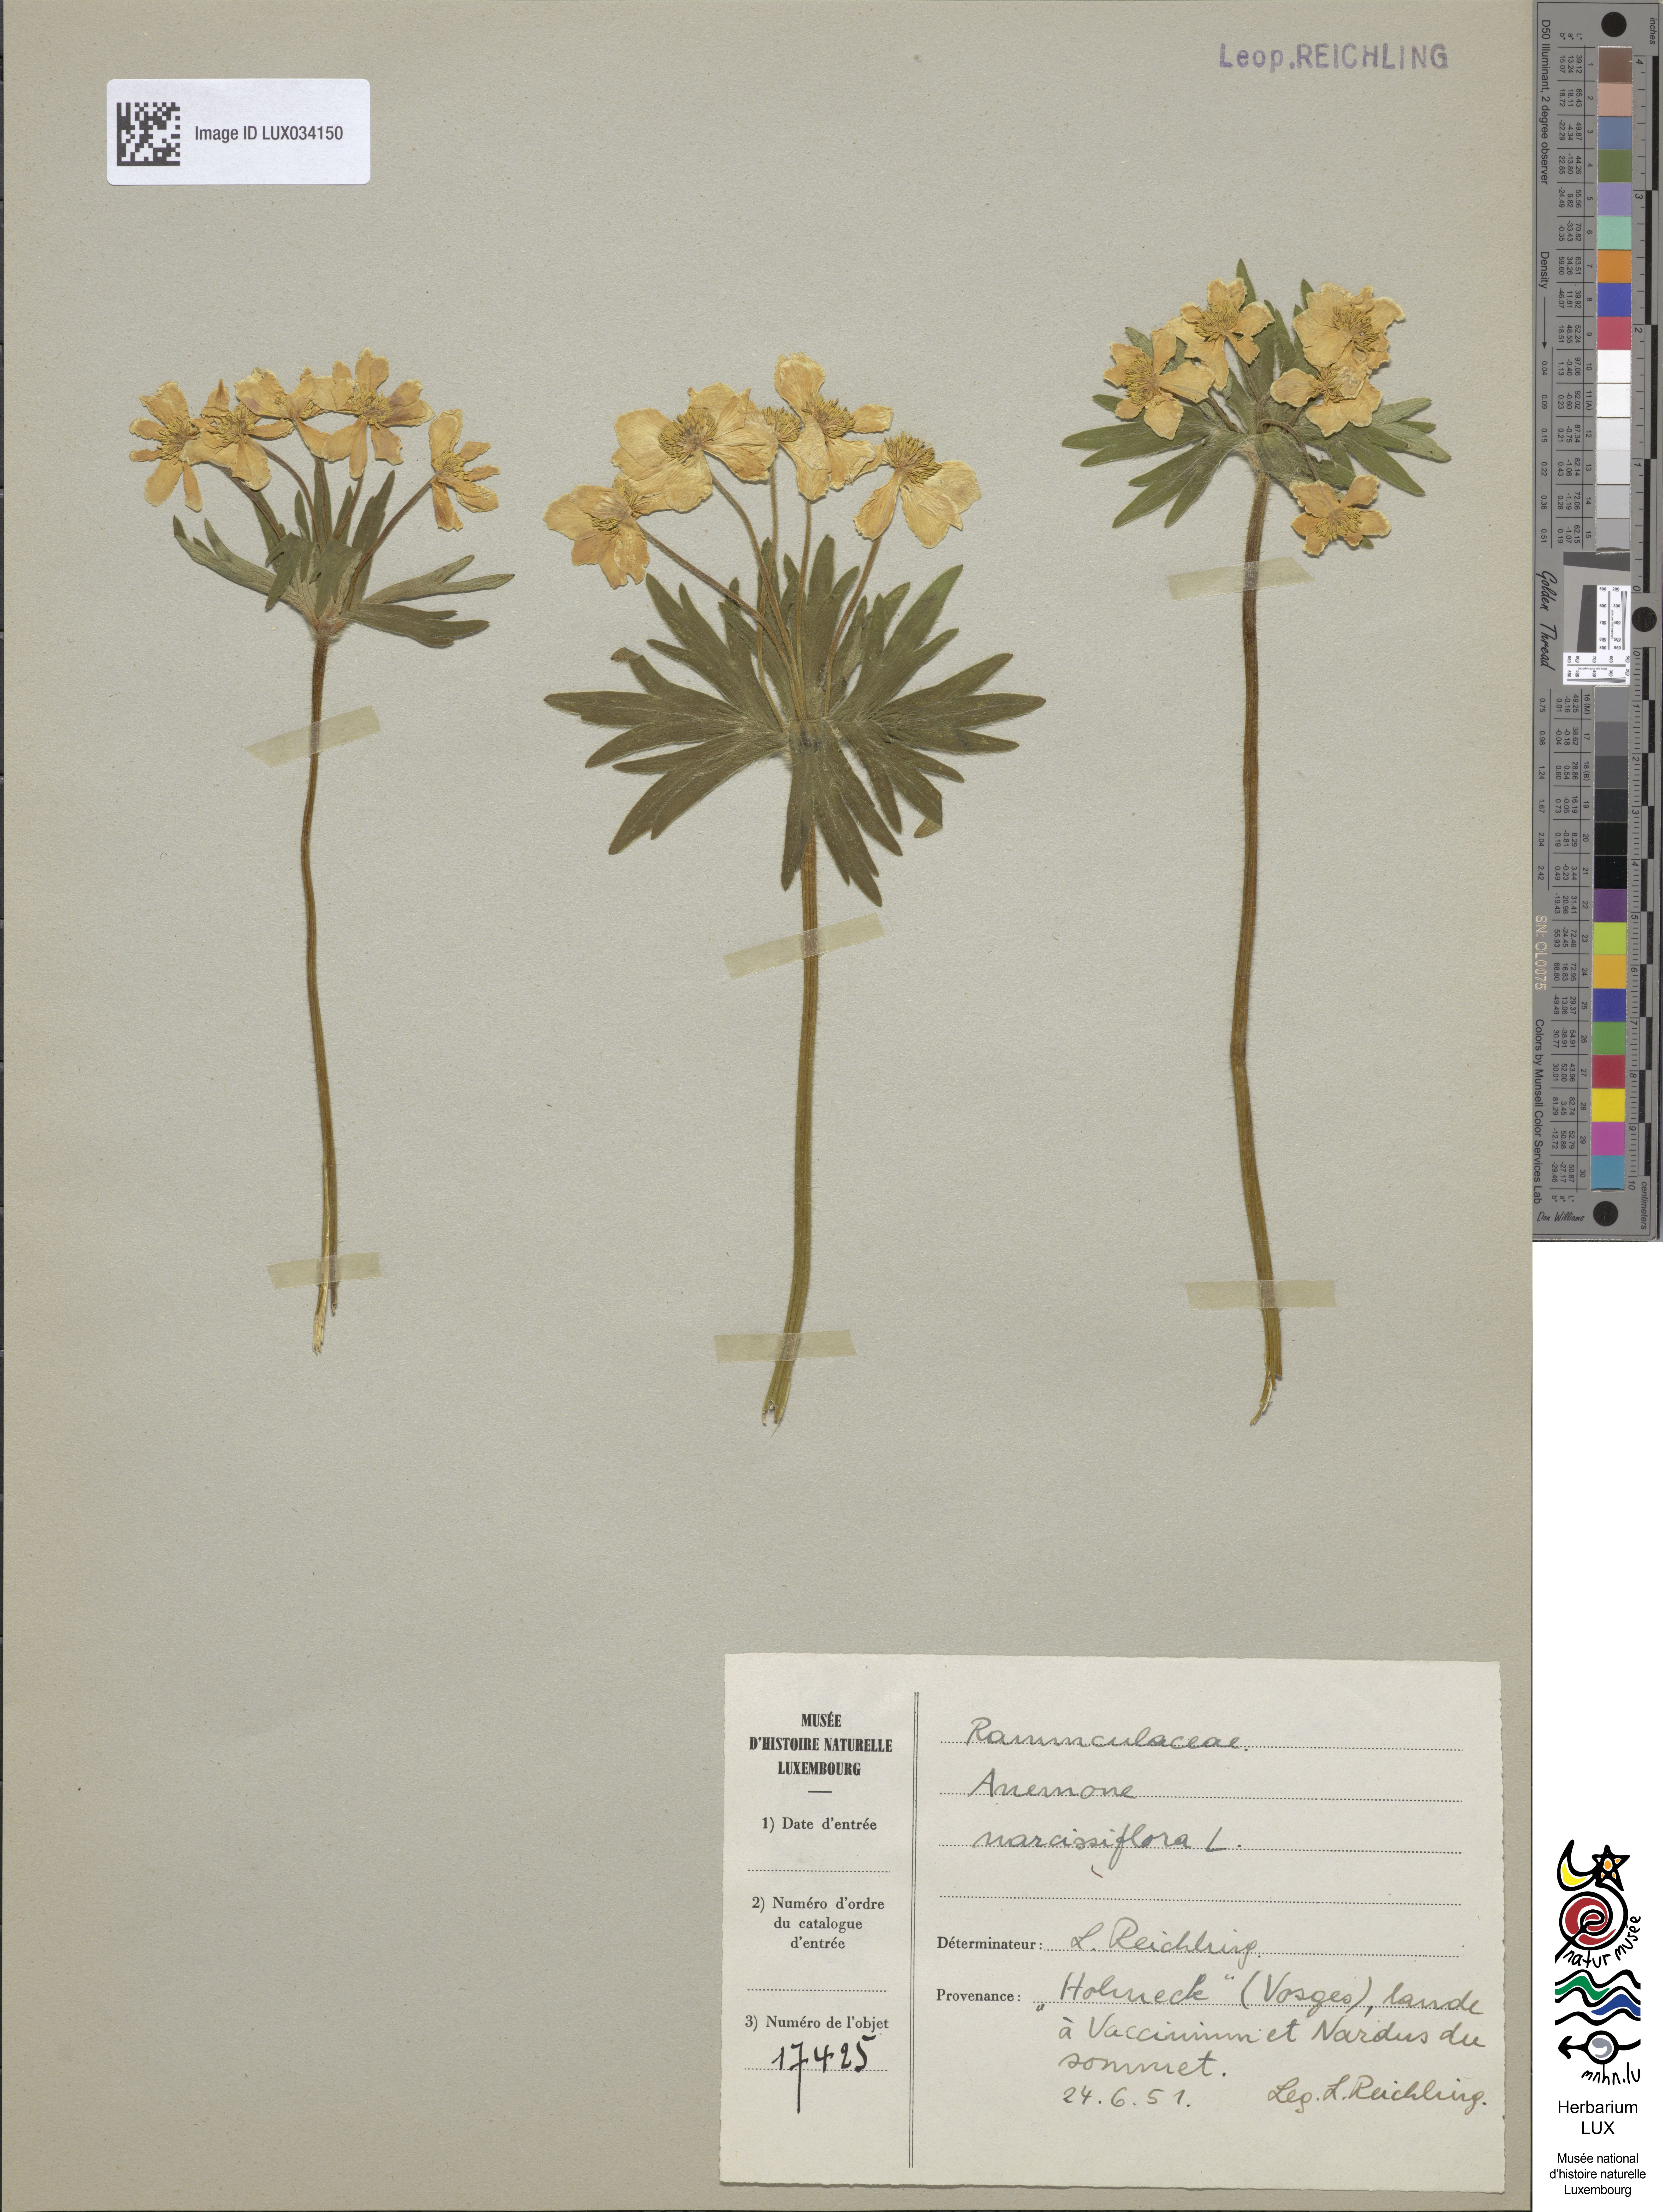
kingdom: Plantae
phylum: Tracheophyta
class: Magnoliopsida
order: Ranunculales
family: Ranunculaceae
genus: Anemone
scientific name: Anemone narcissifolia
